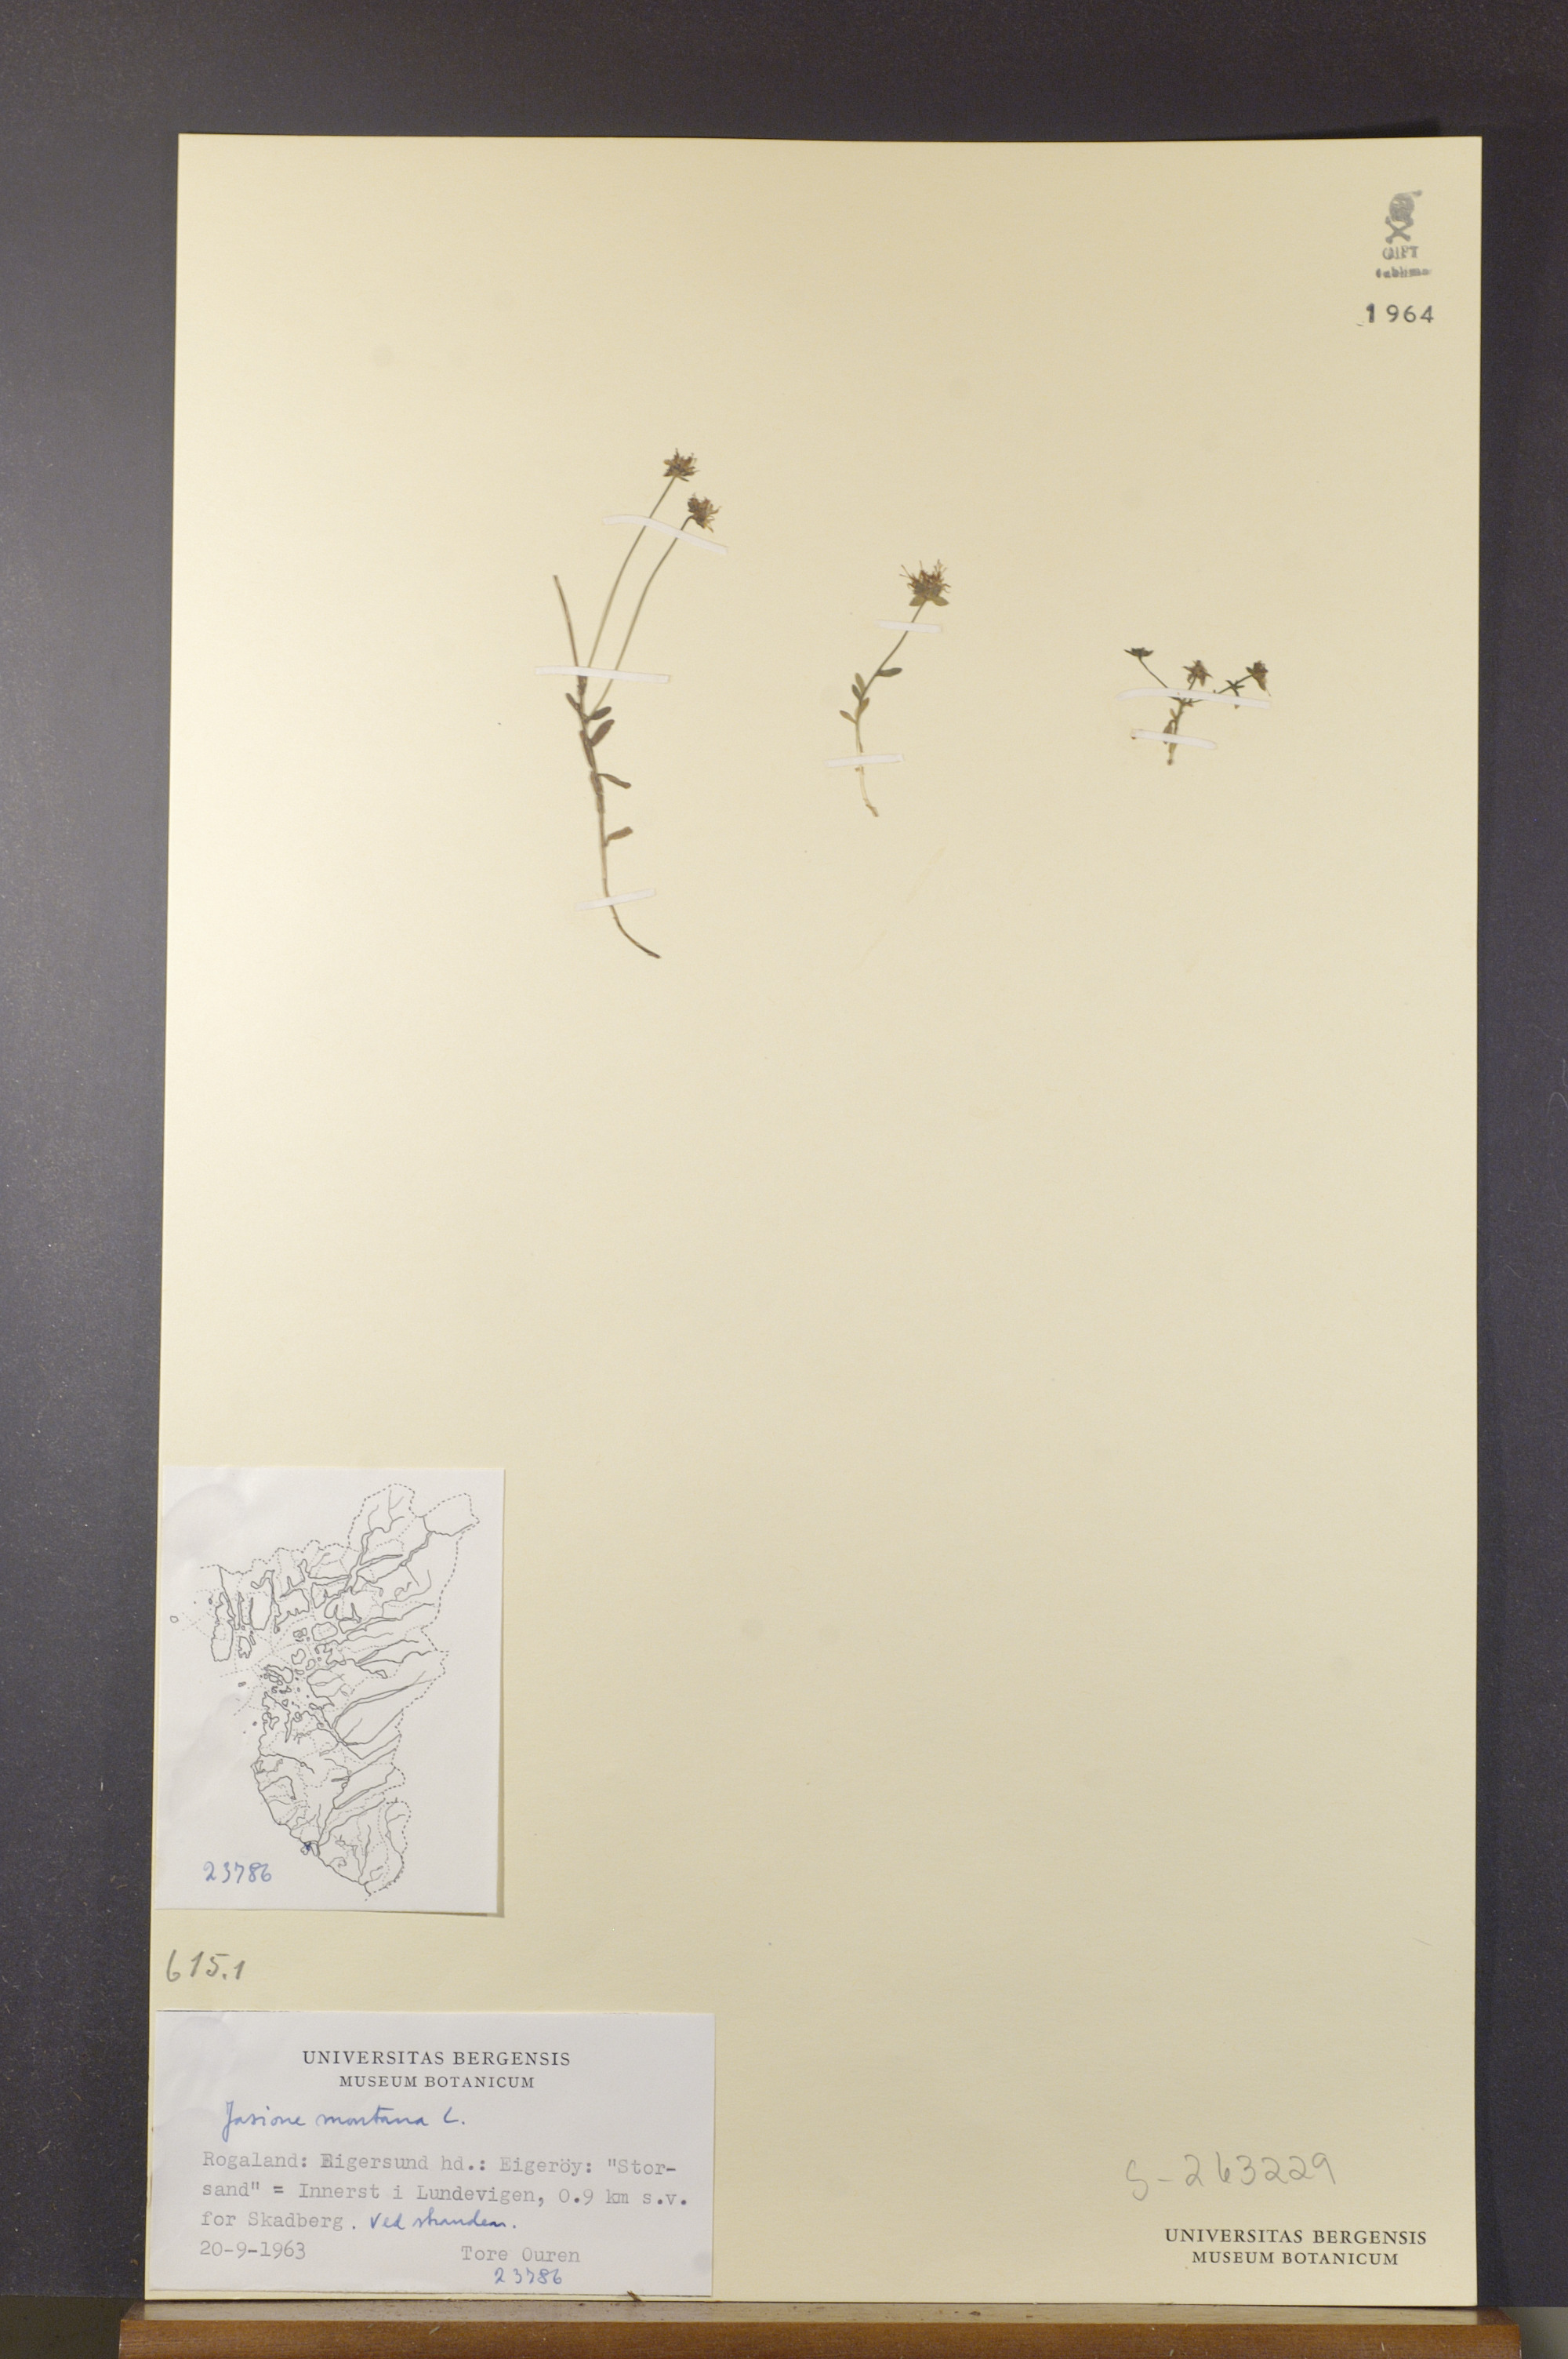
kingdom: Plantae
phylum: Tracheophyta
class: Magnoliopsida
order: Asterales
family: Campanulaceae
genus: Jasione
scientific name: Jasione montana
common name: Sheep's-bit
